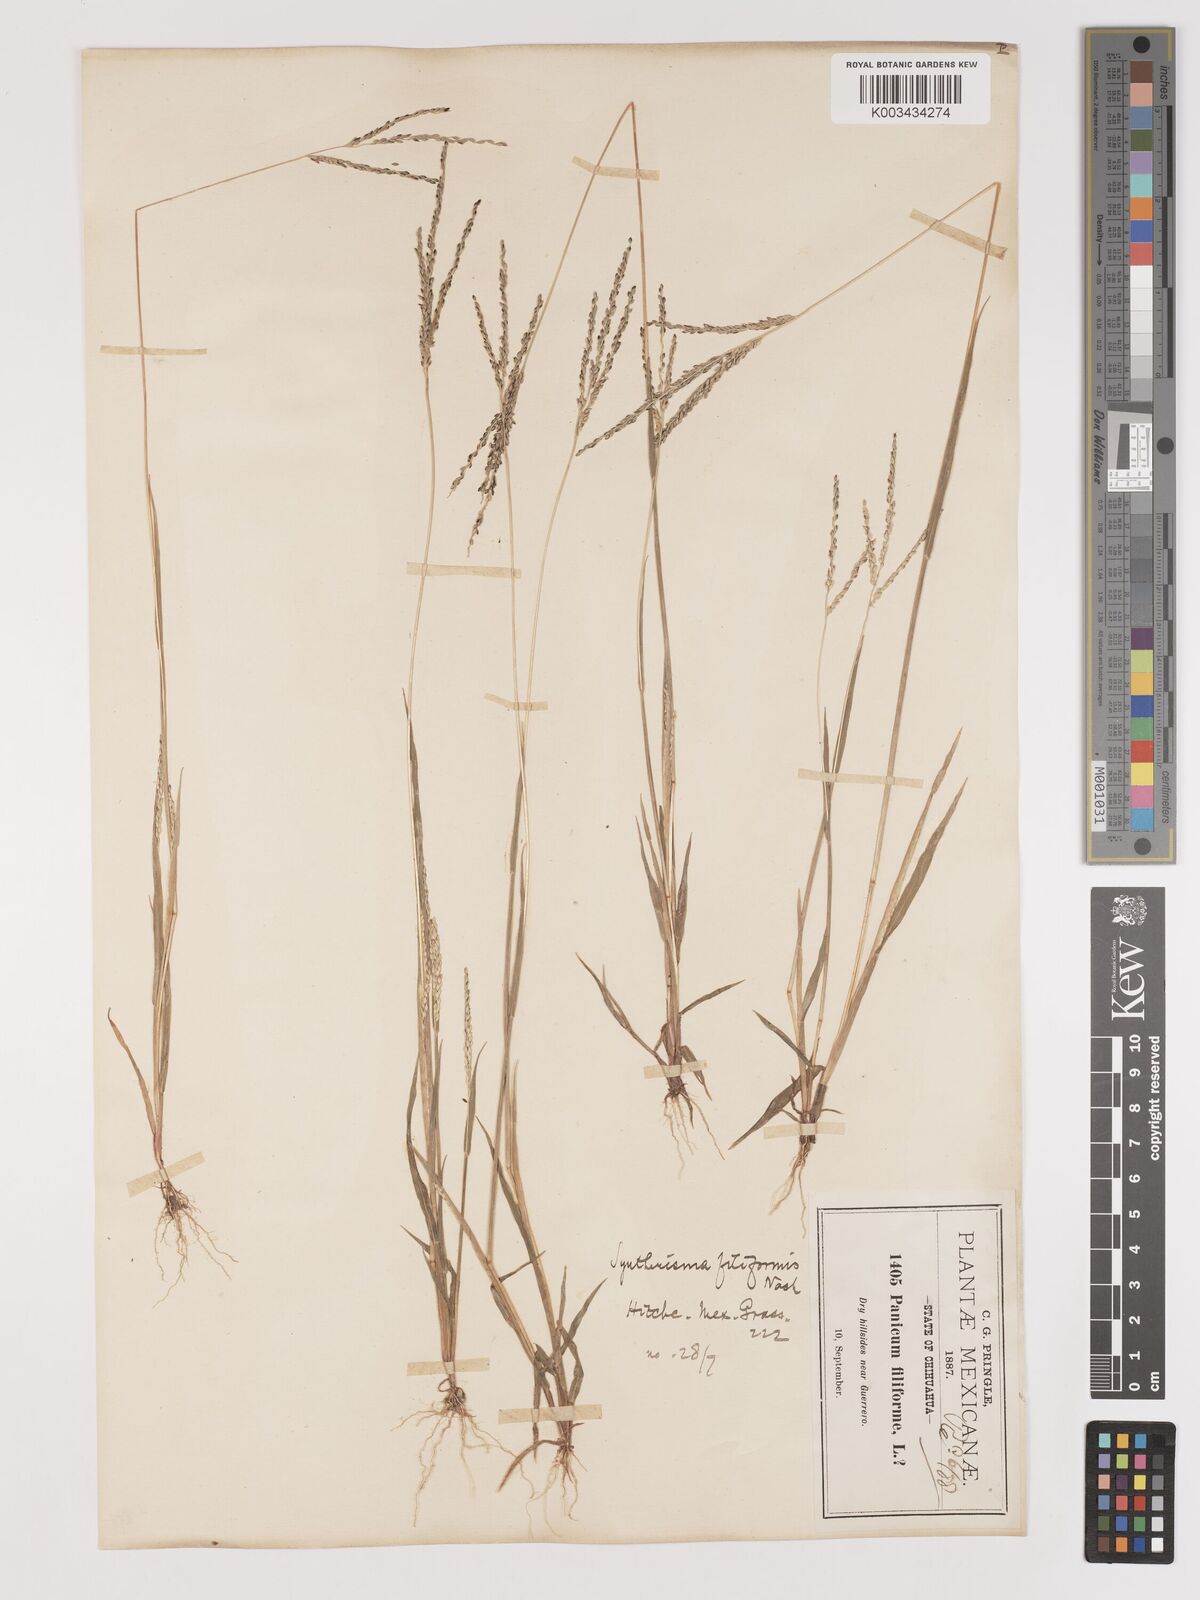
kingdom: Plantae
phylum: Tracheophyta
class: Liliopsida
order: Poales
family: Poaceae
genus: Digitaria
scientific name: Digitaria filiformis
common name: Slender crabgrass
